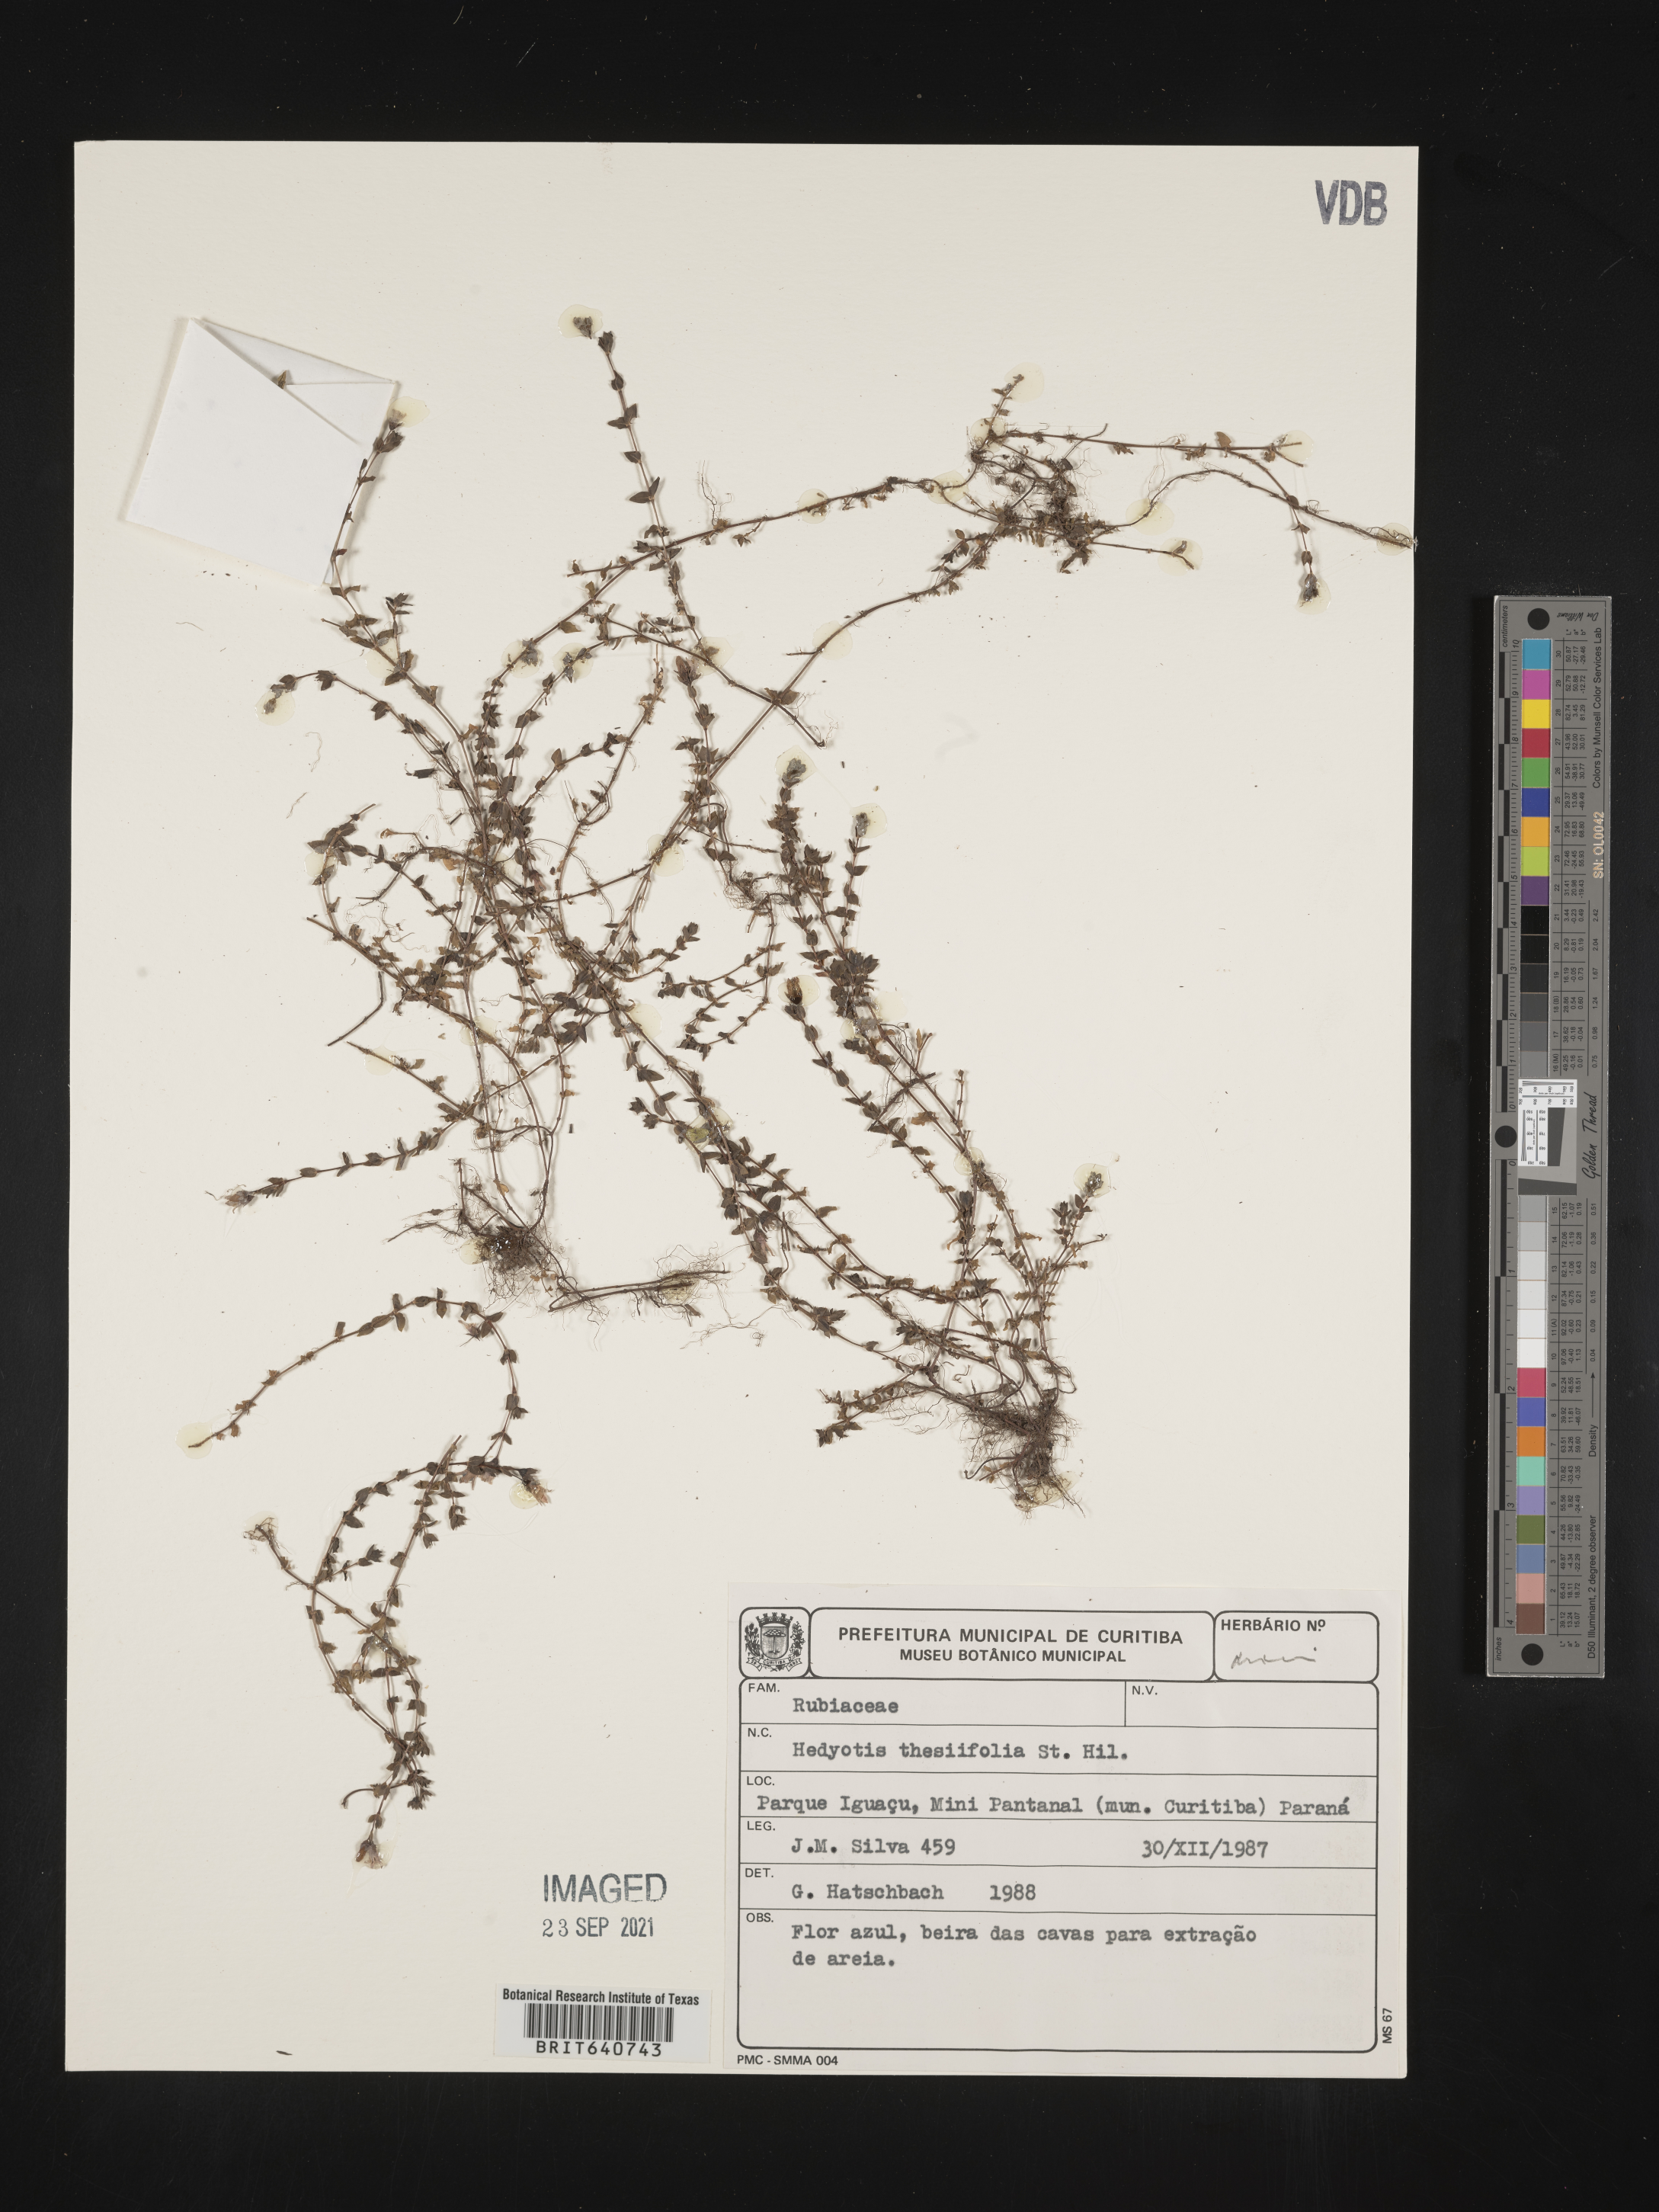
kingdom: Plantae
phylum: Tracheophyta
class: Magnoliopsida
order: Gentianales
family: Rubiaceae
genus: Hedyotis
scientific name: Hedyotis
